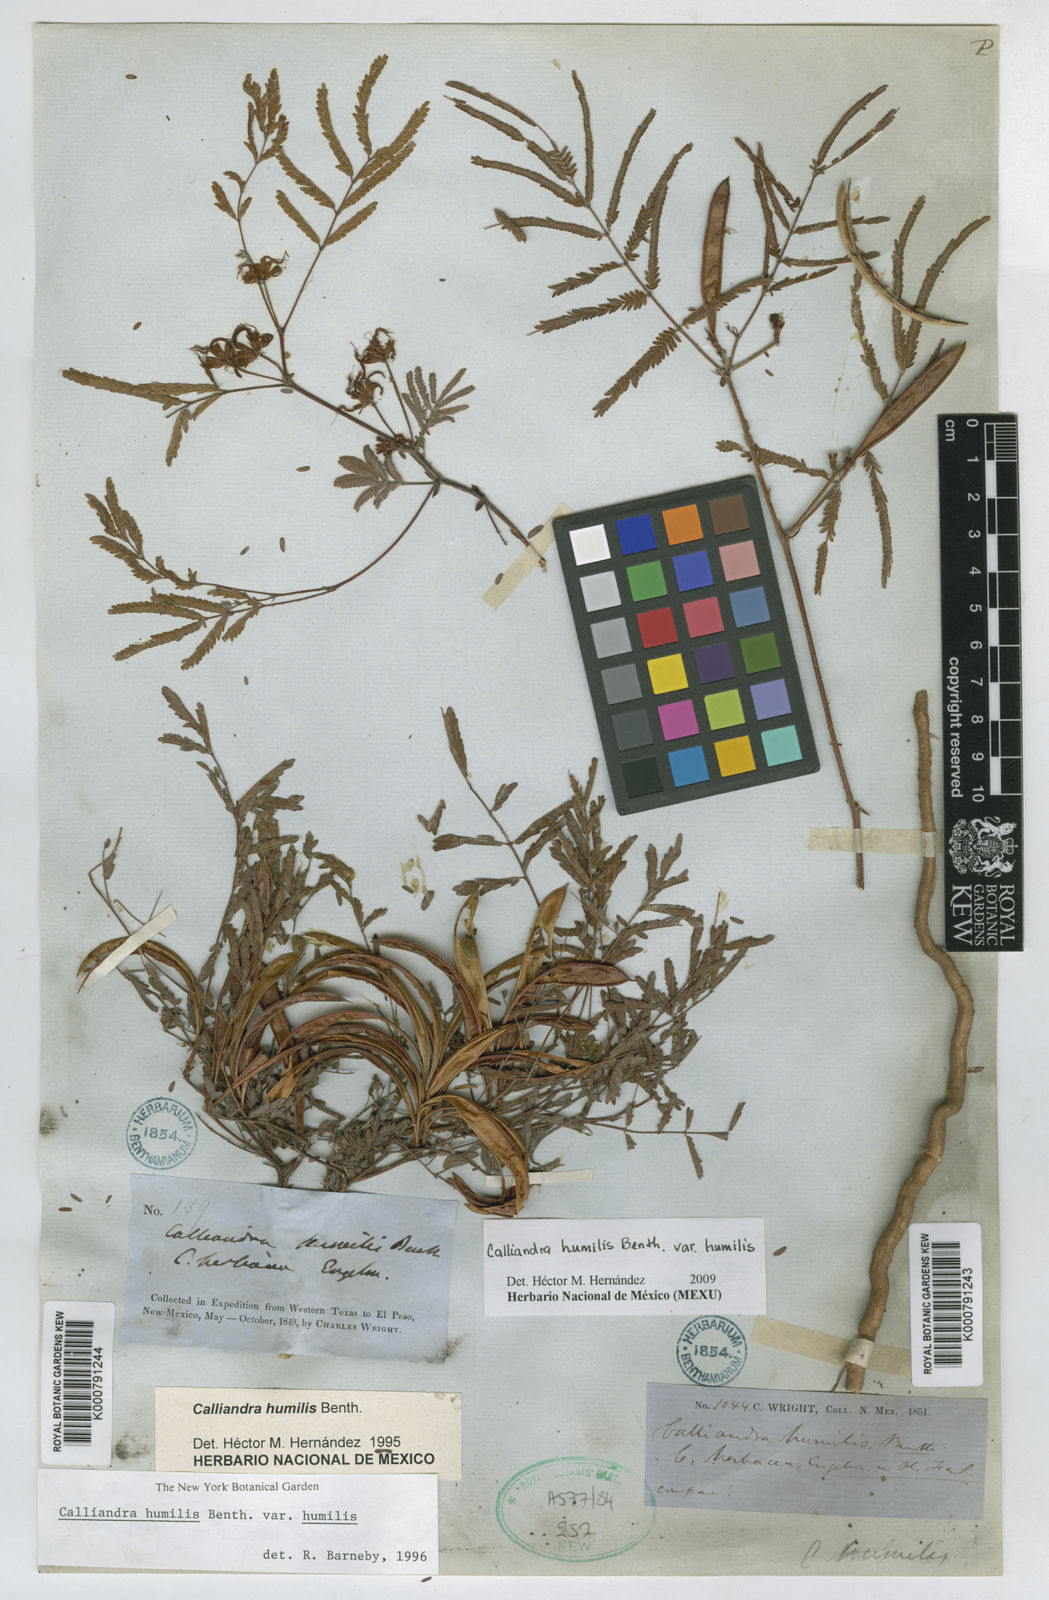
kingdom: Plantae
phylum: Tracheophyta
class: Magnoliopsida
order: Fabales
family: Fabaceae
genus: Calliandra
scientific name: Calliandra humilis
